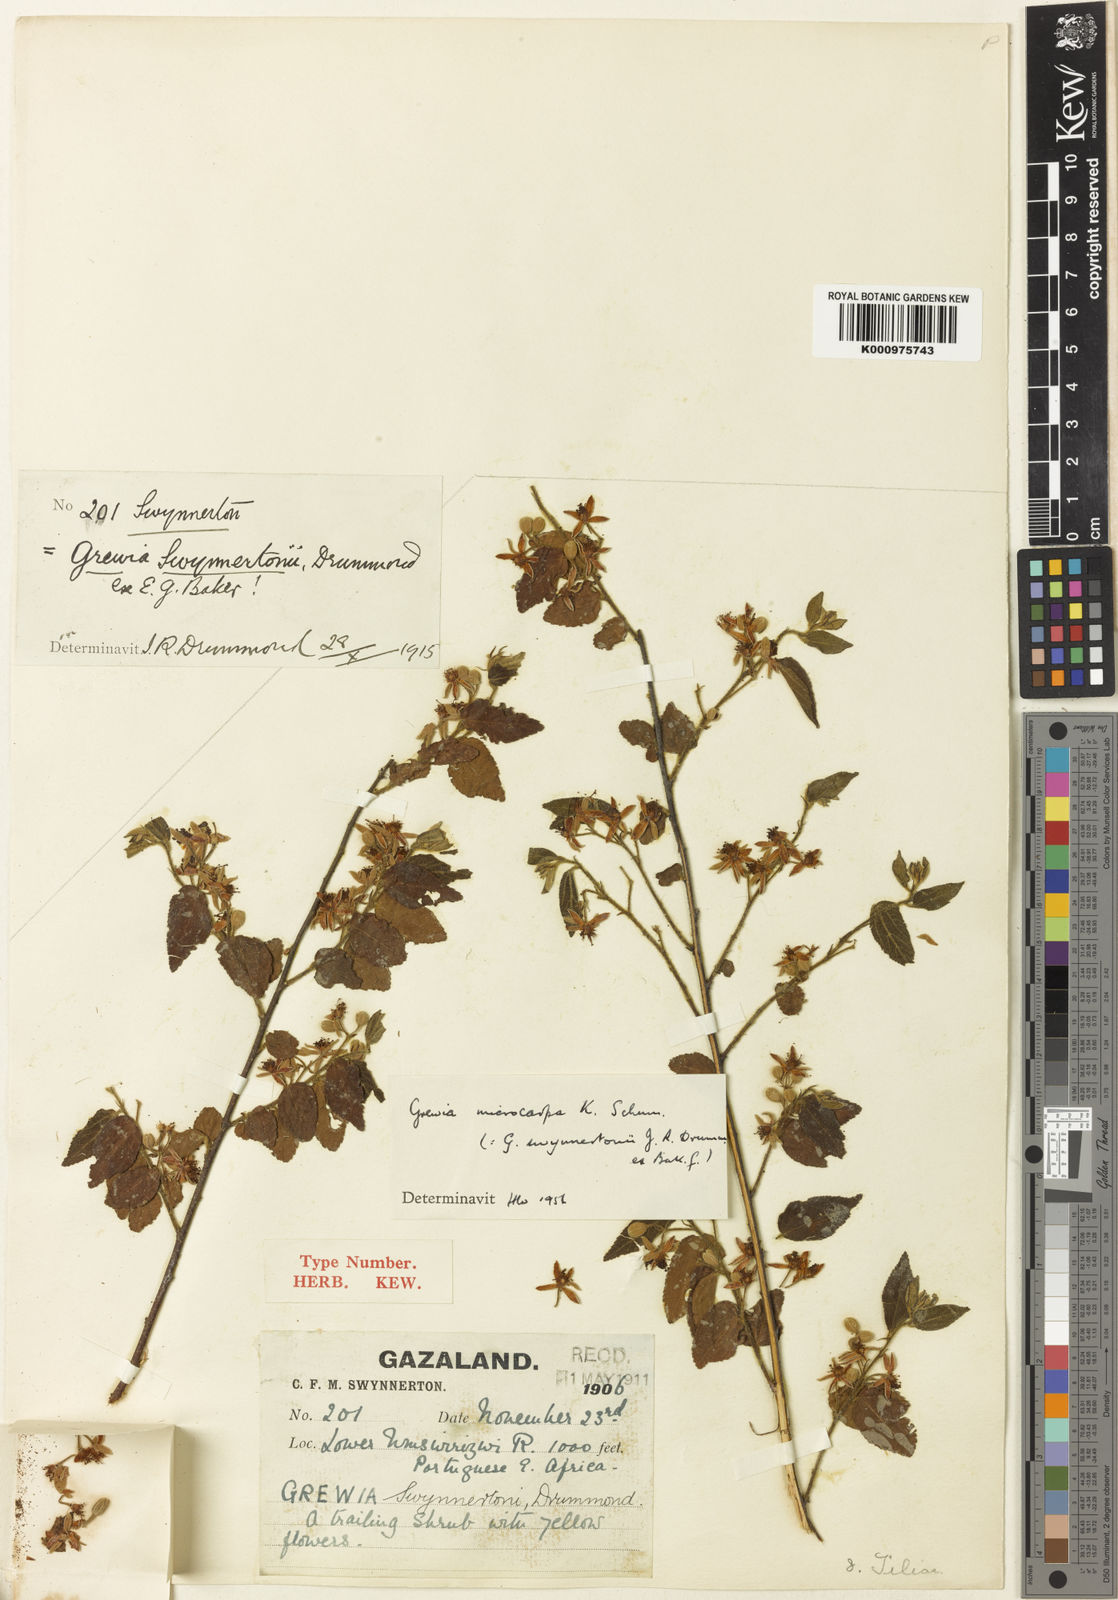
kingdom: Plantae
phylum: Tracheophyta
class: Magnoliopsida
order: Malvales
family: Malvaceae
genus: Grewia
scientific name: Grewia microcarpa
